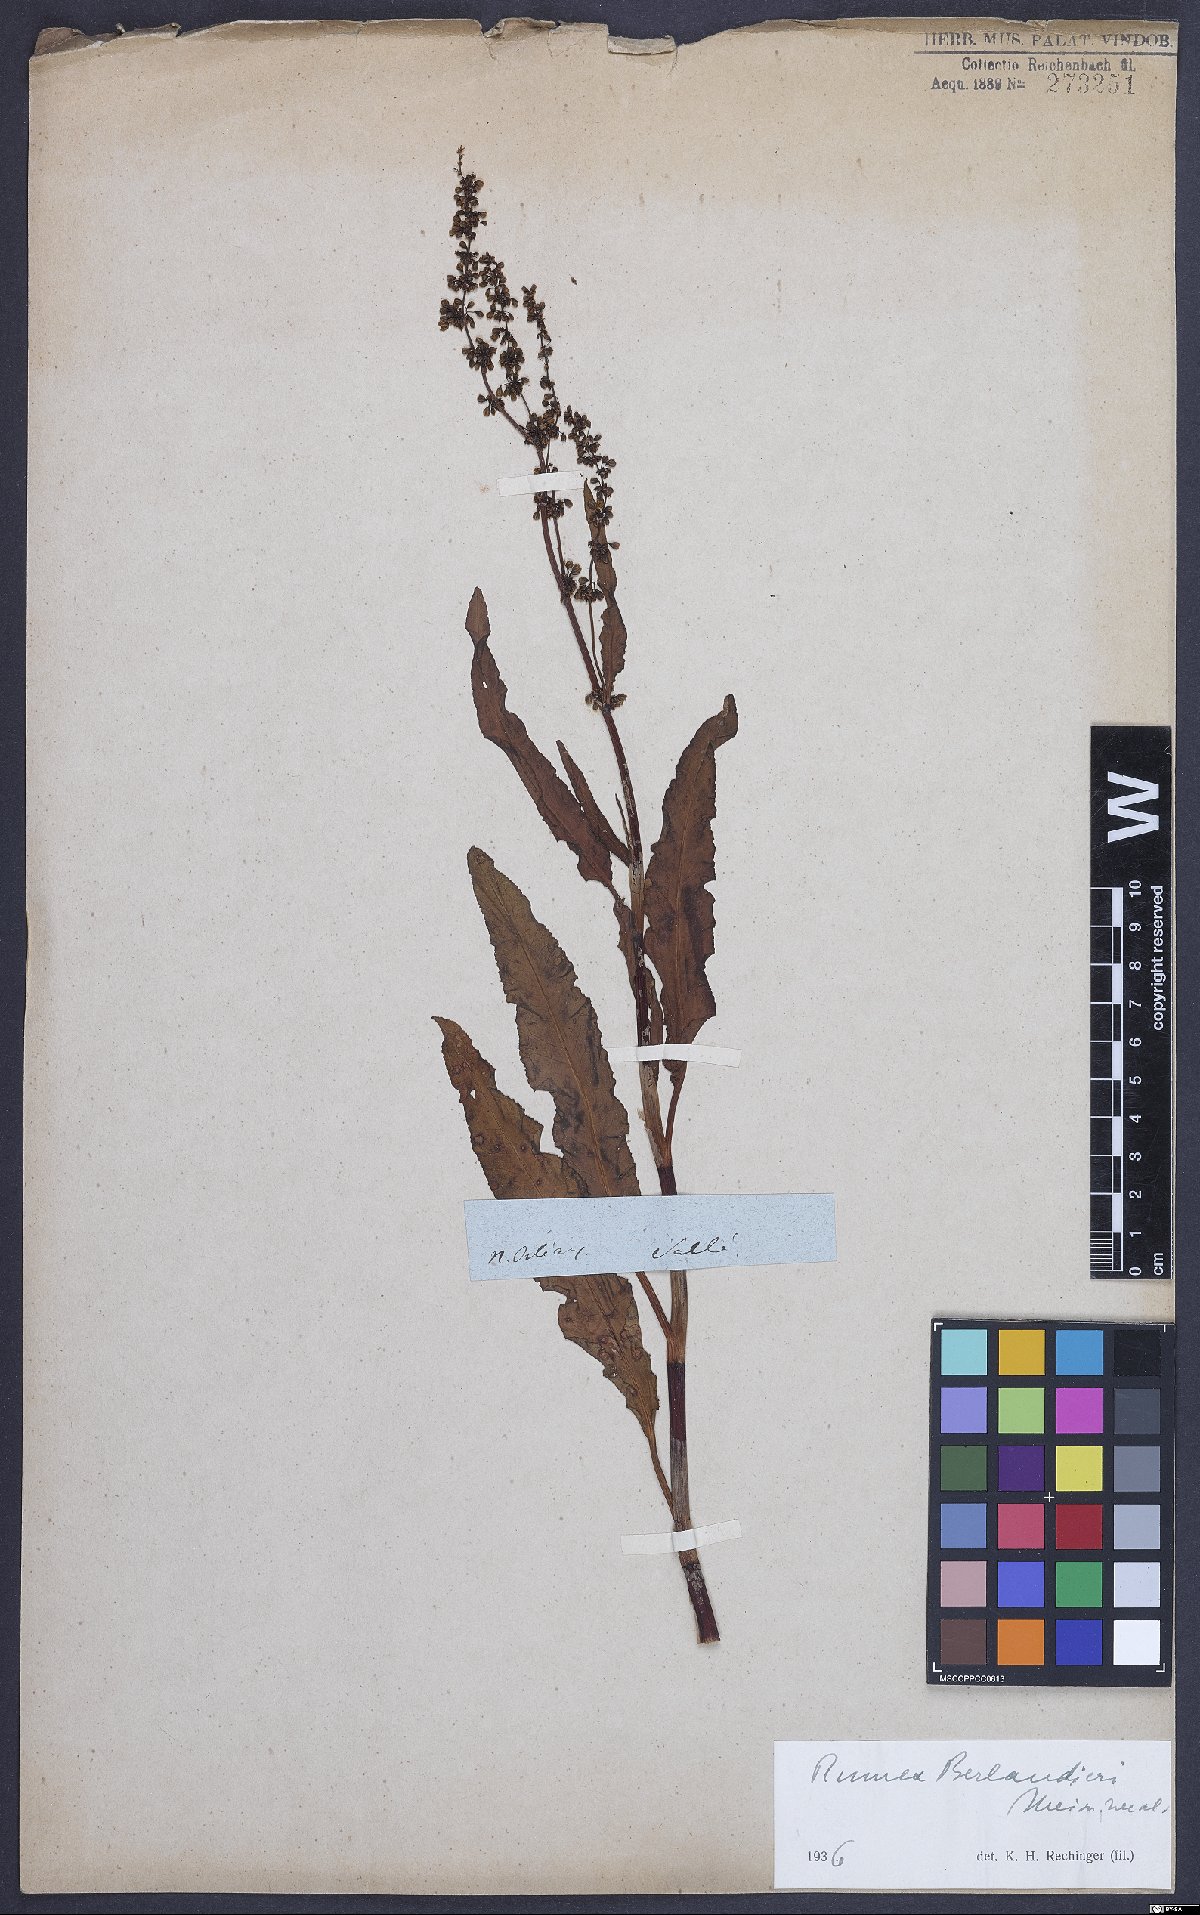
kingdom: Plantae
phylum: Tracheophyta
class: Magnoliopsida
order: Caryophyllales
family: Polygonaceae
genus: Rumex
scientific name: Rumex chrysocarpus
